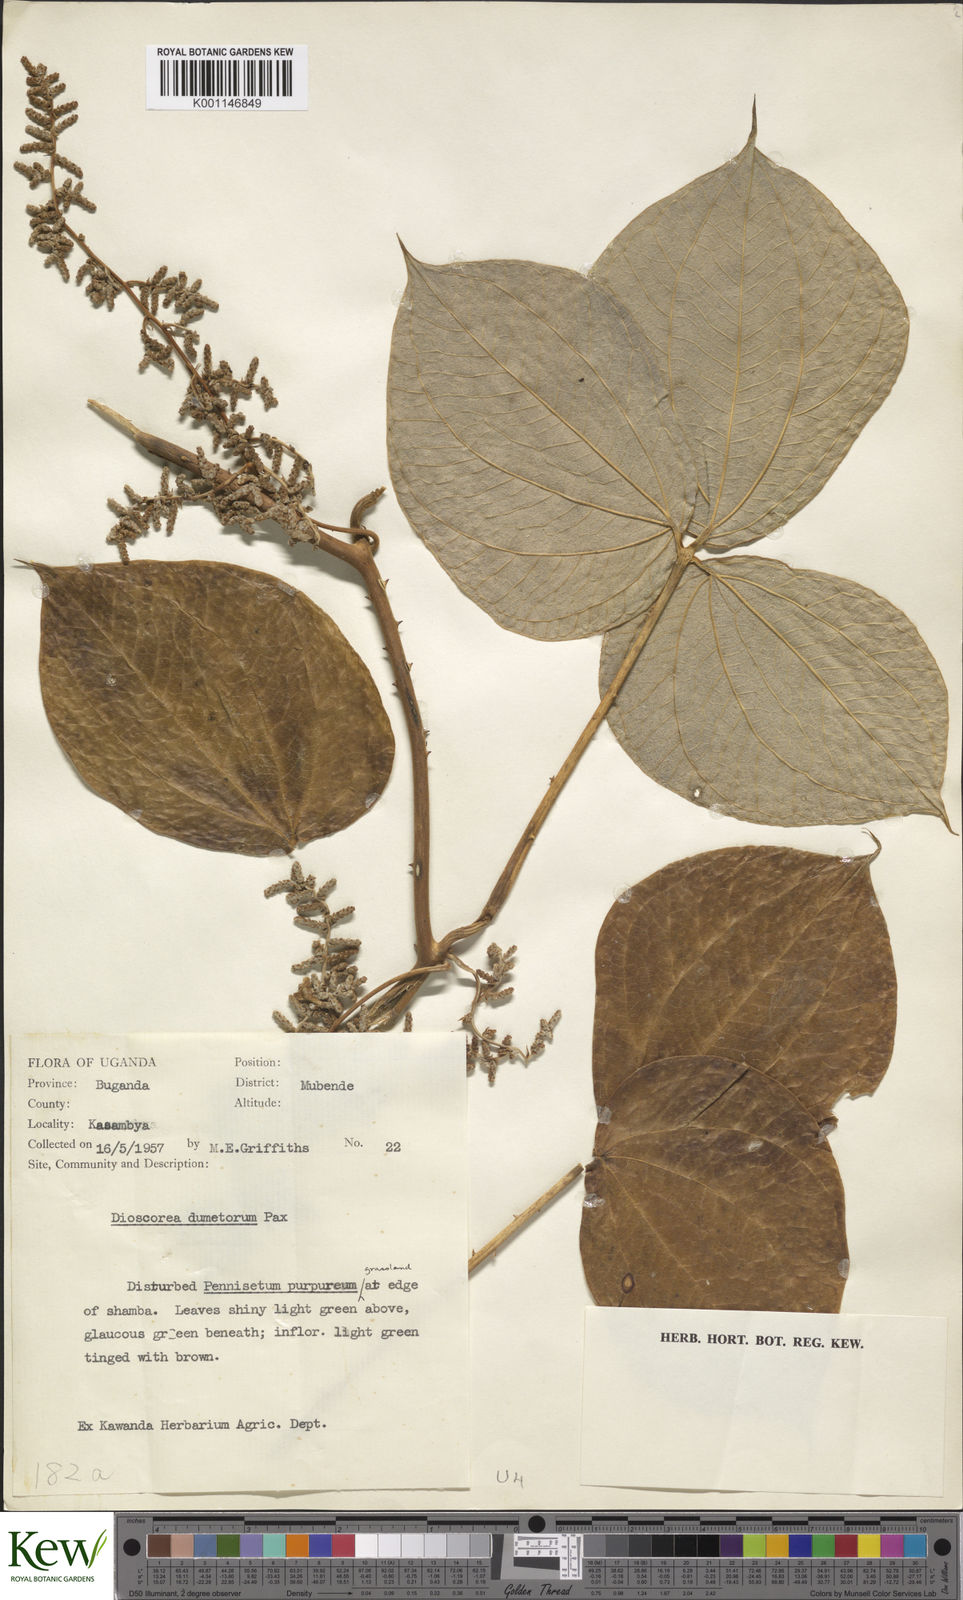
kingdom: Plantae
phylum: Tracheophyta
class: Liliopsida
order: Dioscoreales
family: Dioscoreaceae
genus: Dioscorea
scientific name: Dioscorea dumetorum
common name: African bitter yam
